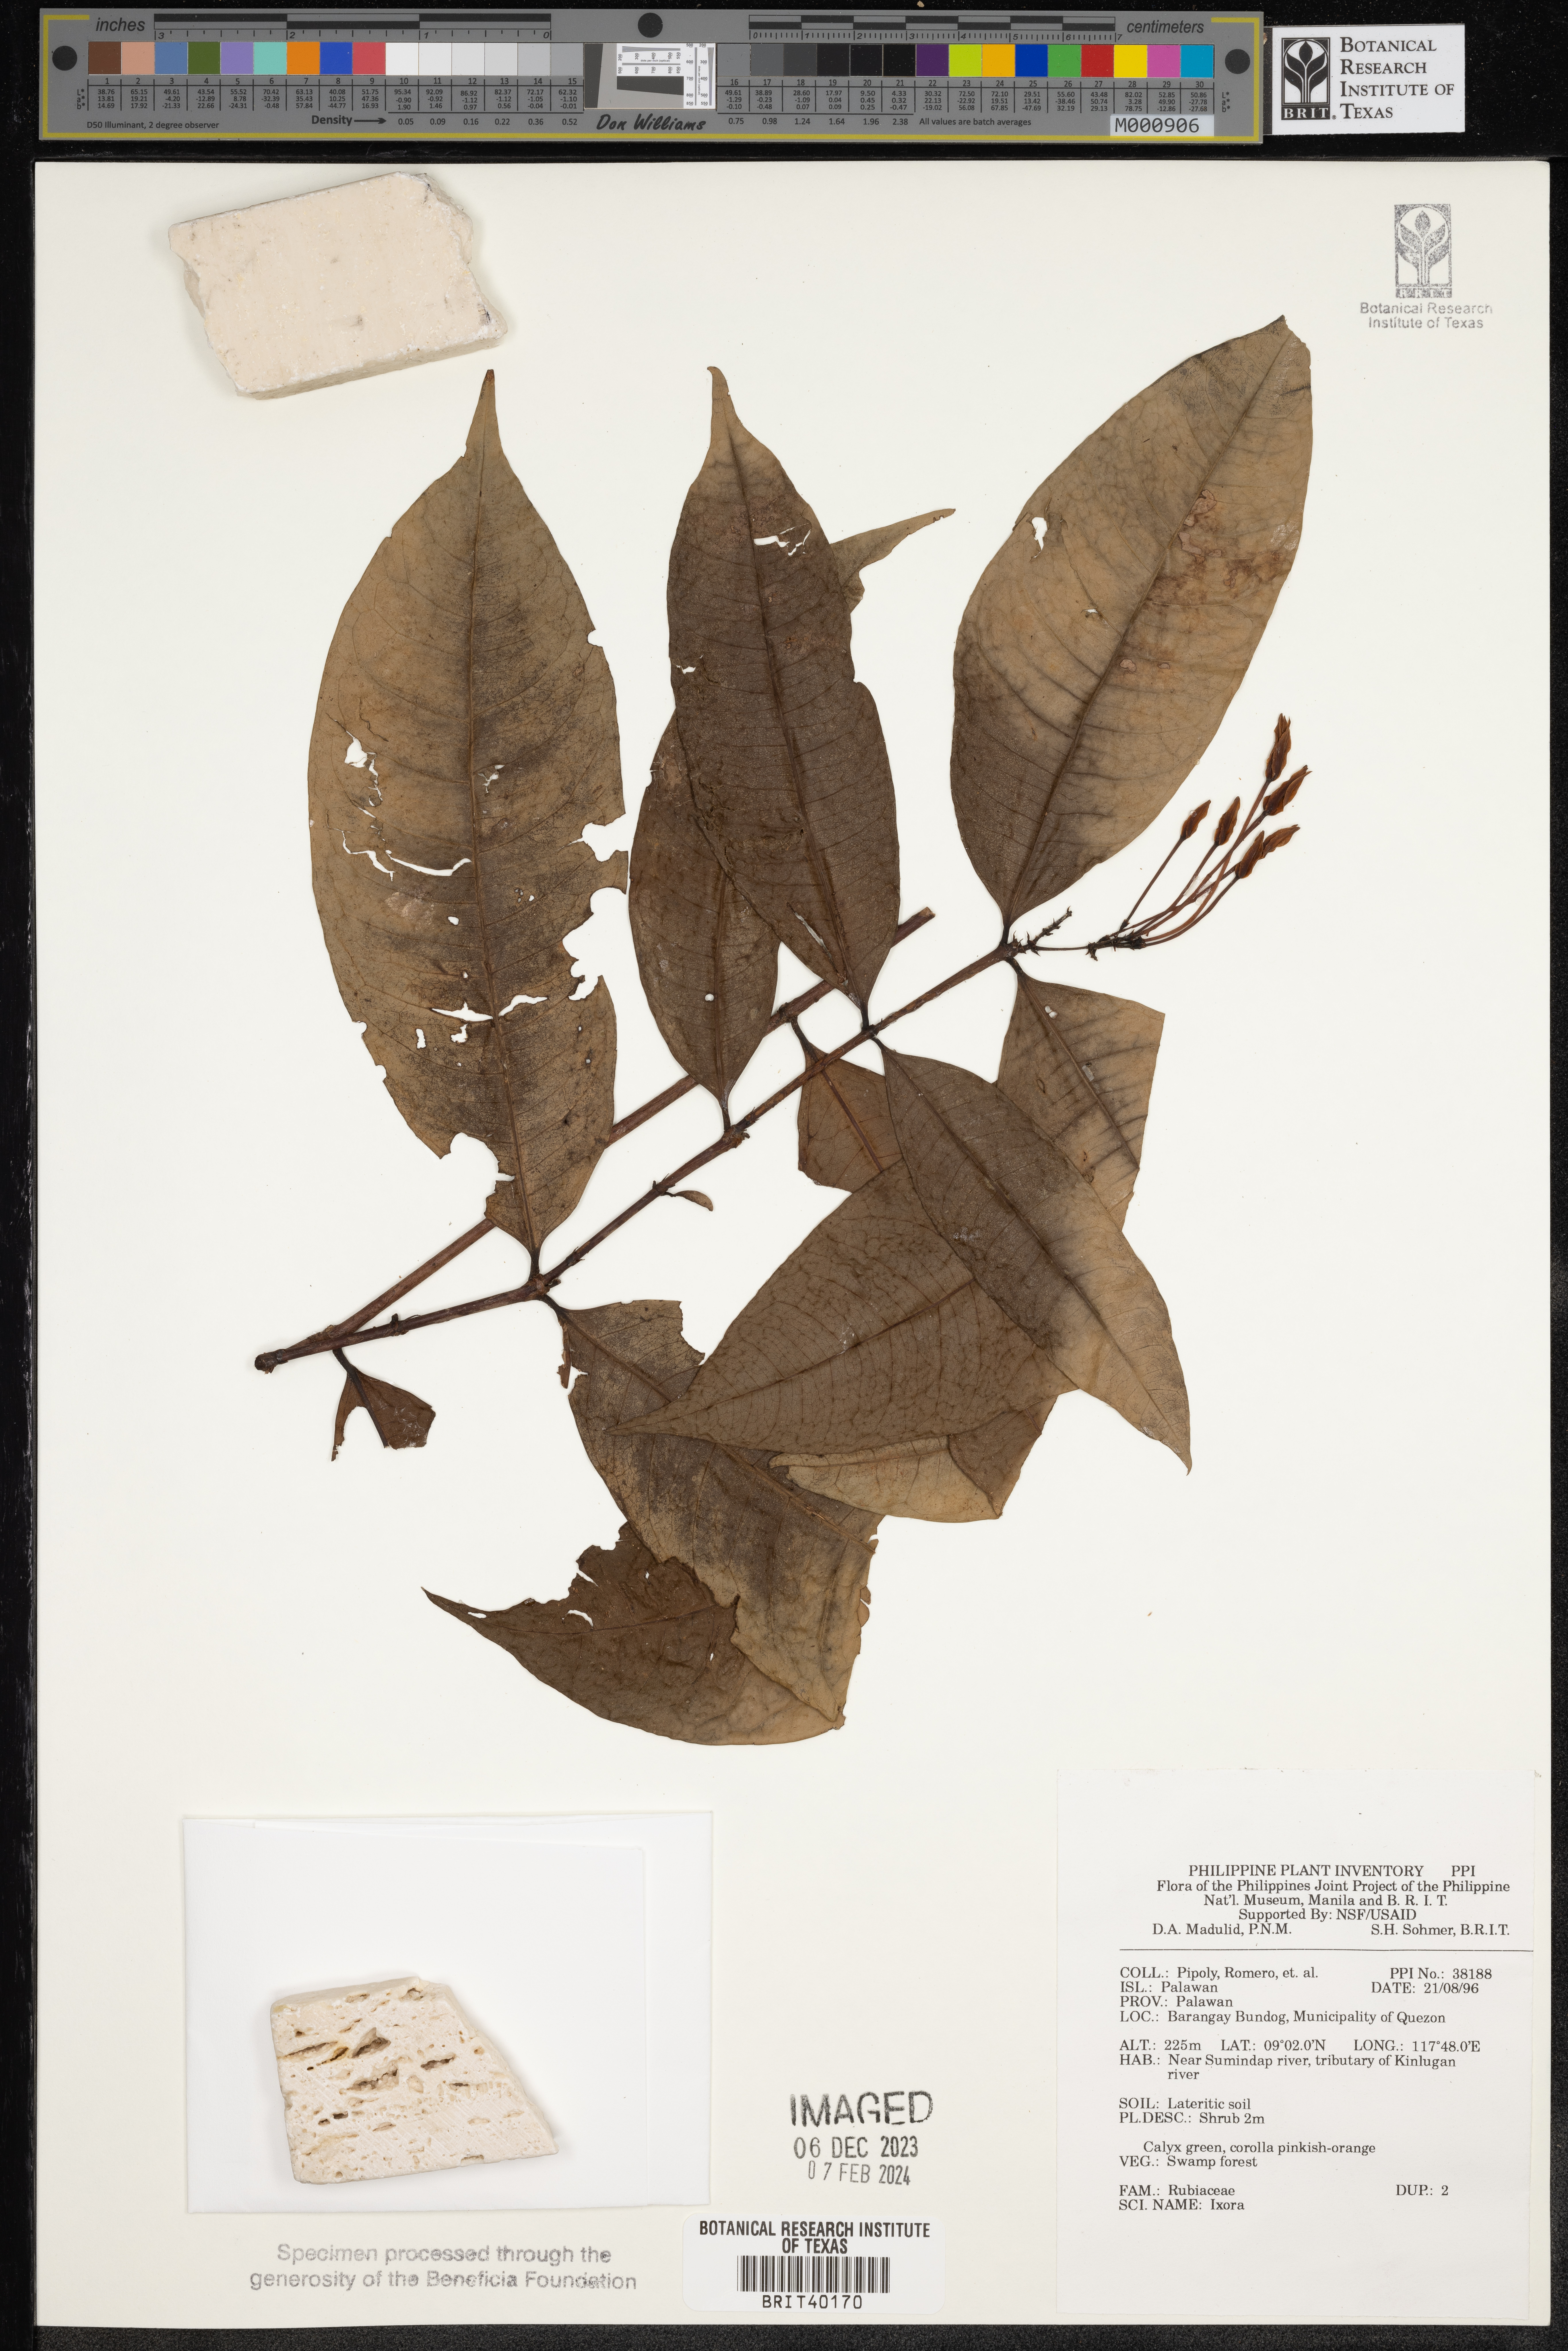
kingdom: Plantae
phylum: Tracheophyta
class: Magnoliopsida
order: Gentianales
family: Rubiaceae
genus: Ixora
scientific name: Ixora
